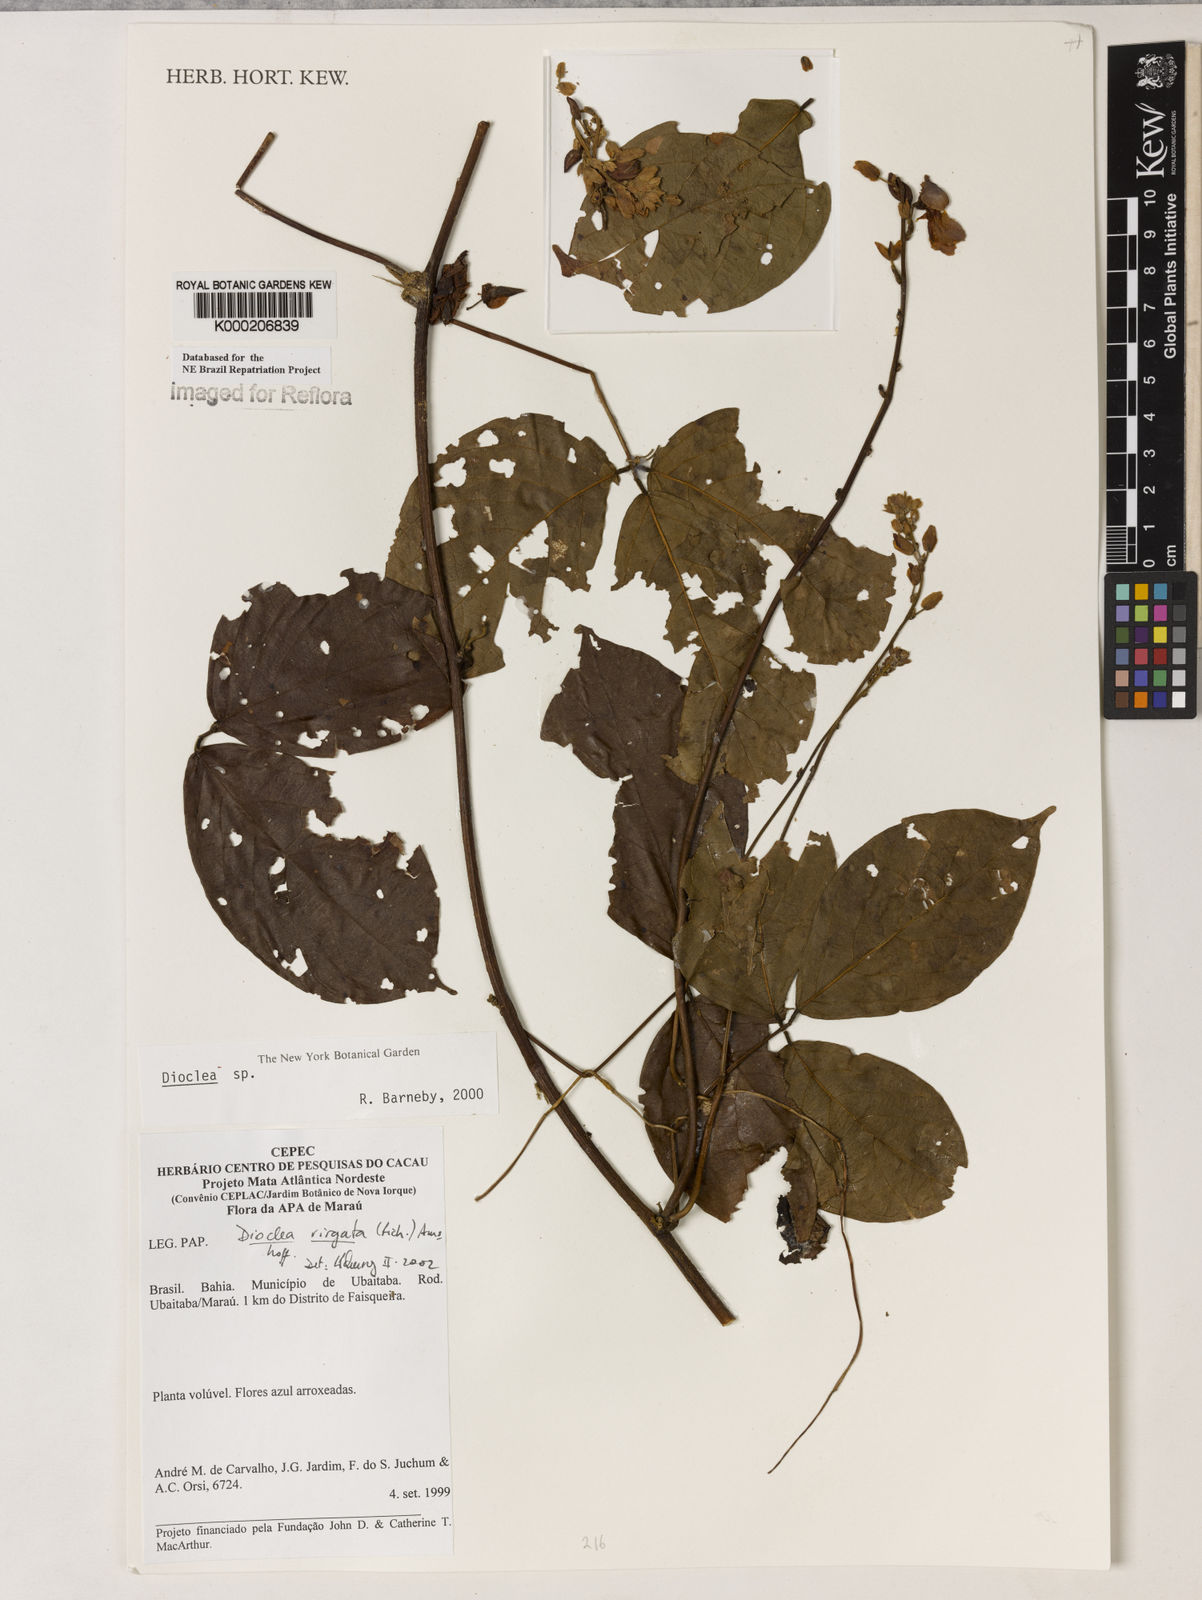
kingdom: Plantae
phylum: Tracheophyta
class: Magnoliopsida
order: Fabales
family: Fabaceae
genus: Dioclea
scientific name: Dioclea virgata
